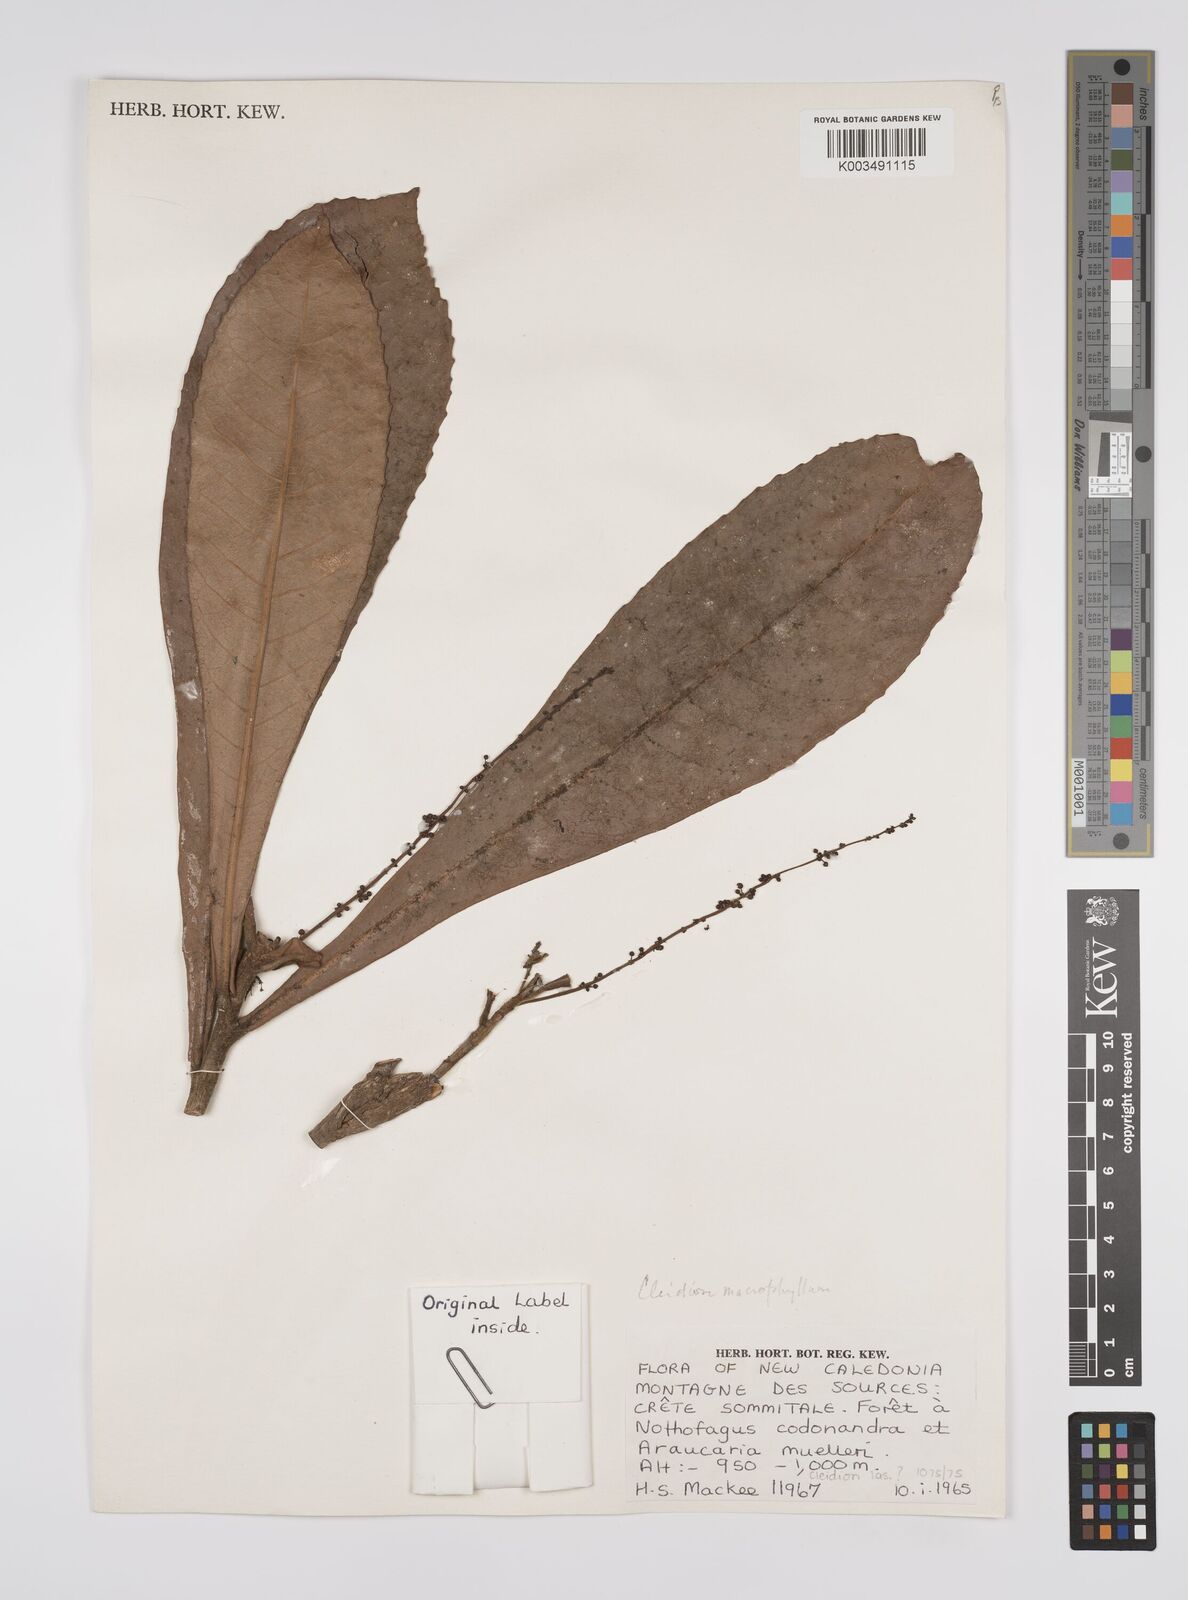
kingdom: Plantae
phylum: Tracheophyta
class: Magnoliopsida
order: Malpighiales
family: Euphorbiaceae
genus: Cleidion
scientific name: Cleidion macrophyllum
